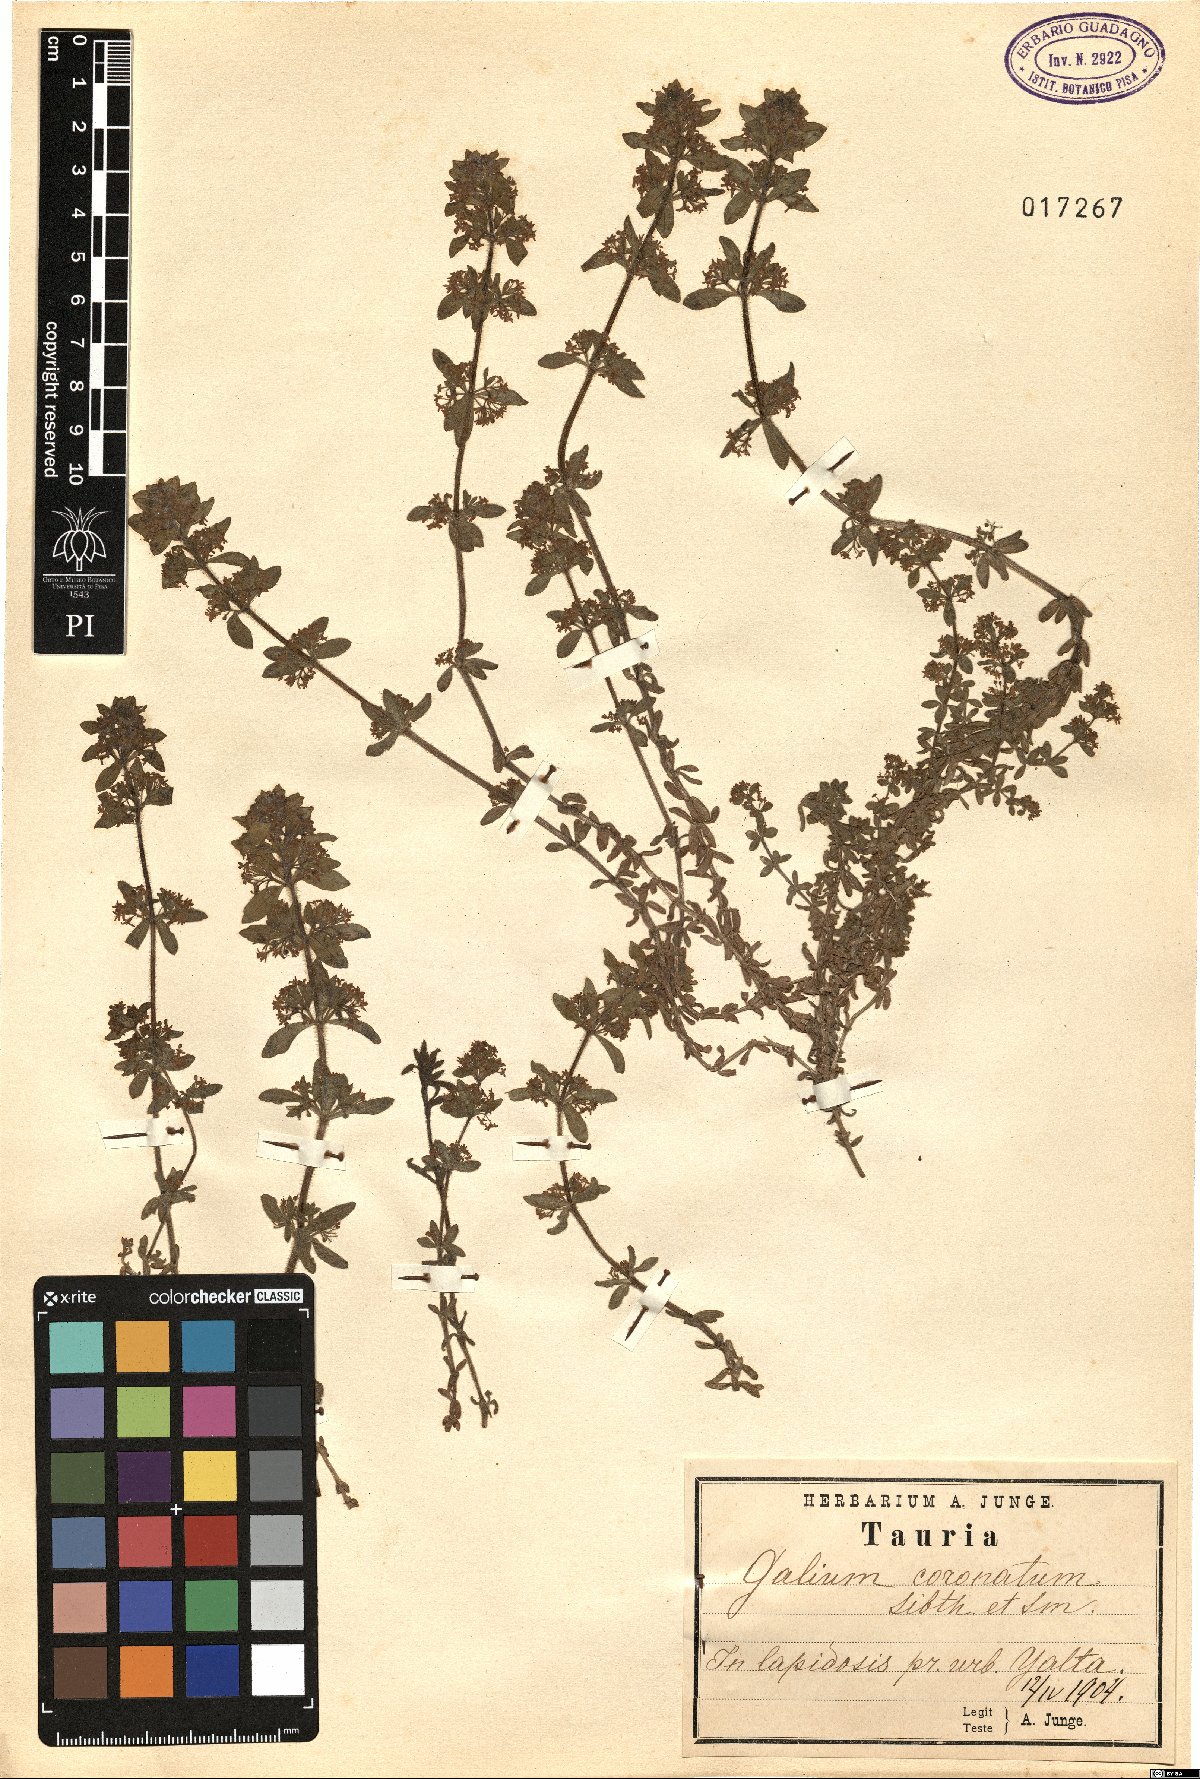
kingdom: Plantae
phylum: Tracheophyta
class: Magnoliopsida
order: Gentianales
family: Rubiaceae
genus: Cruciata
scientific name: Cruciata taurica
